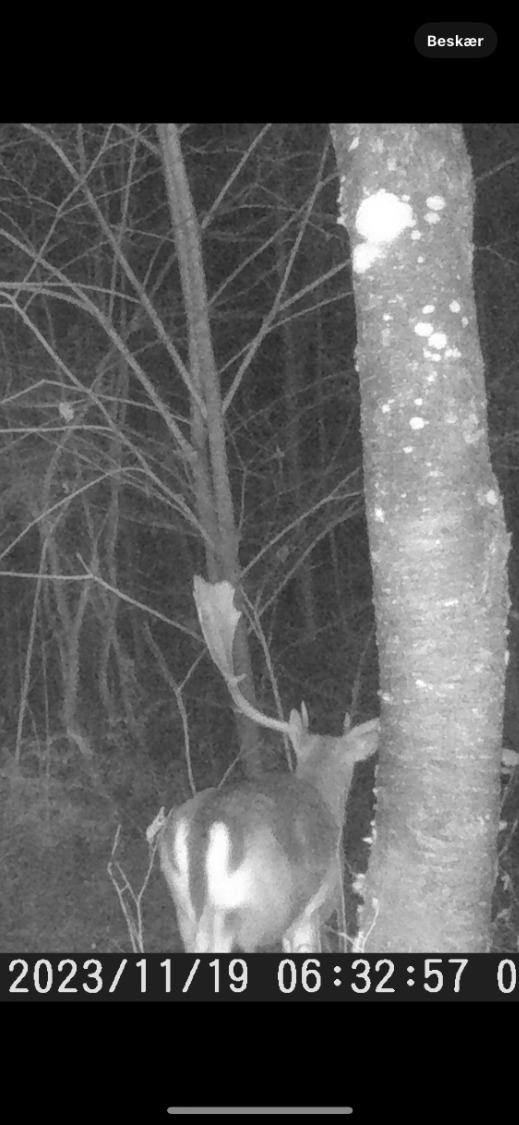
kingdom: Animalia
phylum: Chordata
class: Mammalia
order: Artiodactyla
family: Cervidae
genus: Dama
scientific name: Dama dama
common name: Dådyr
